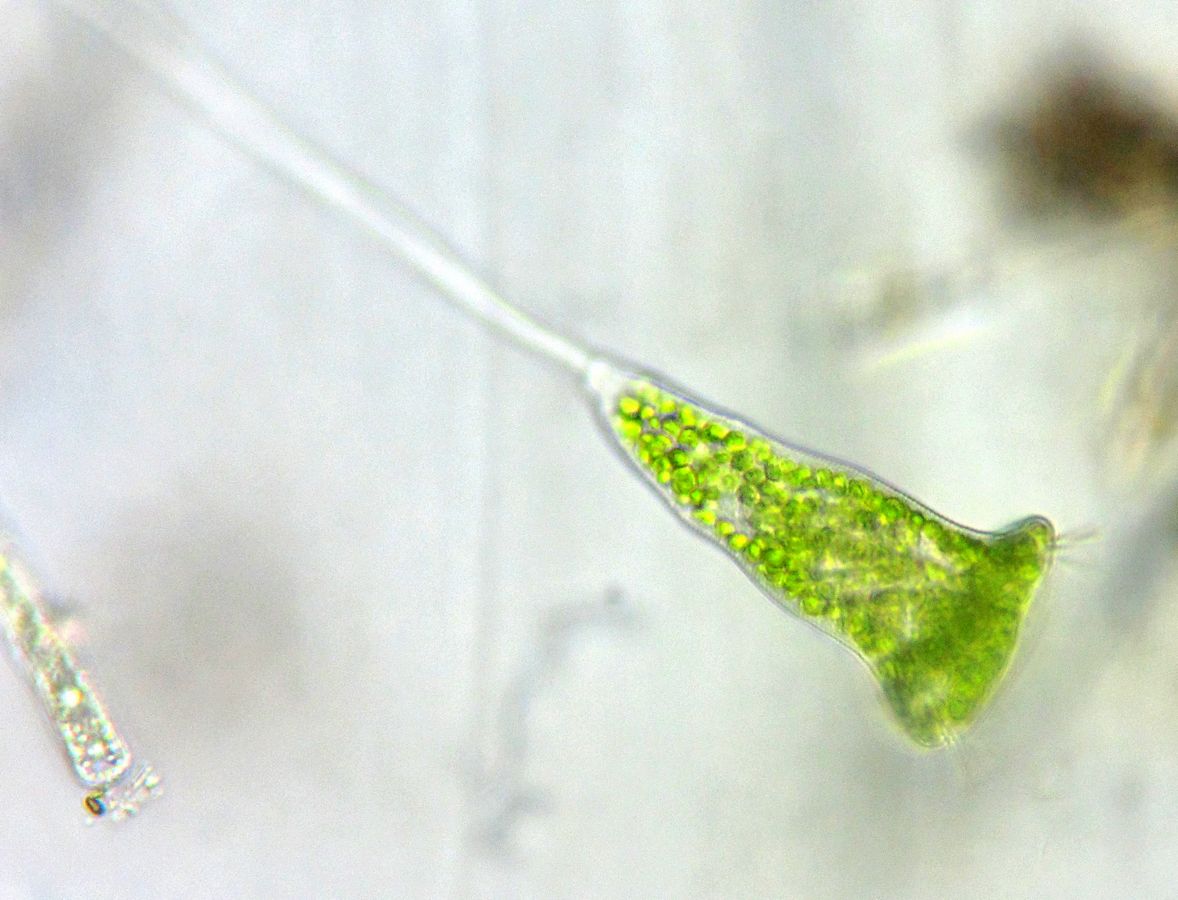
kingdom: Chromista
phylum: Ciliophora
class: Oligohymenophorea
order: Peritrichida
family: Vorticellidae
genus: Vorticella
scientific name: Vorticella chlorellata
